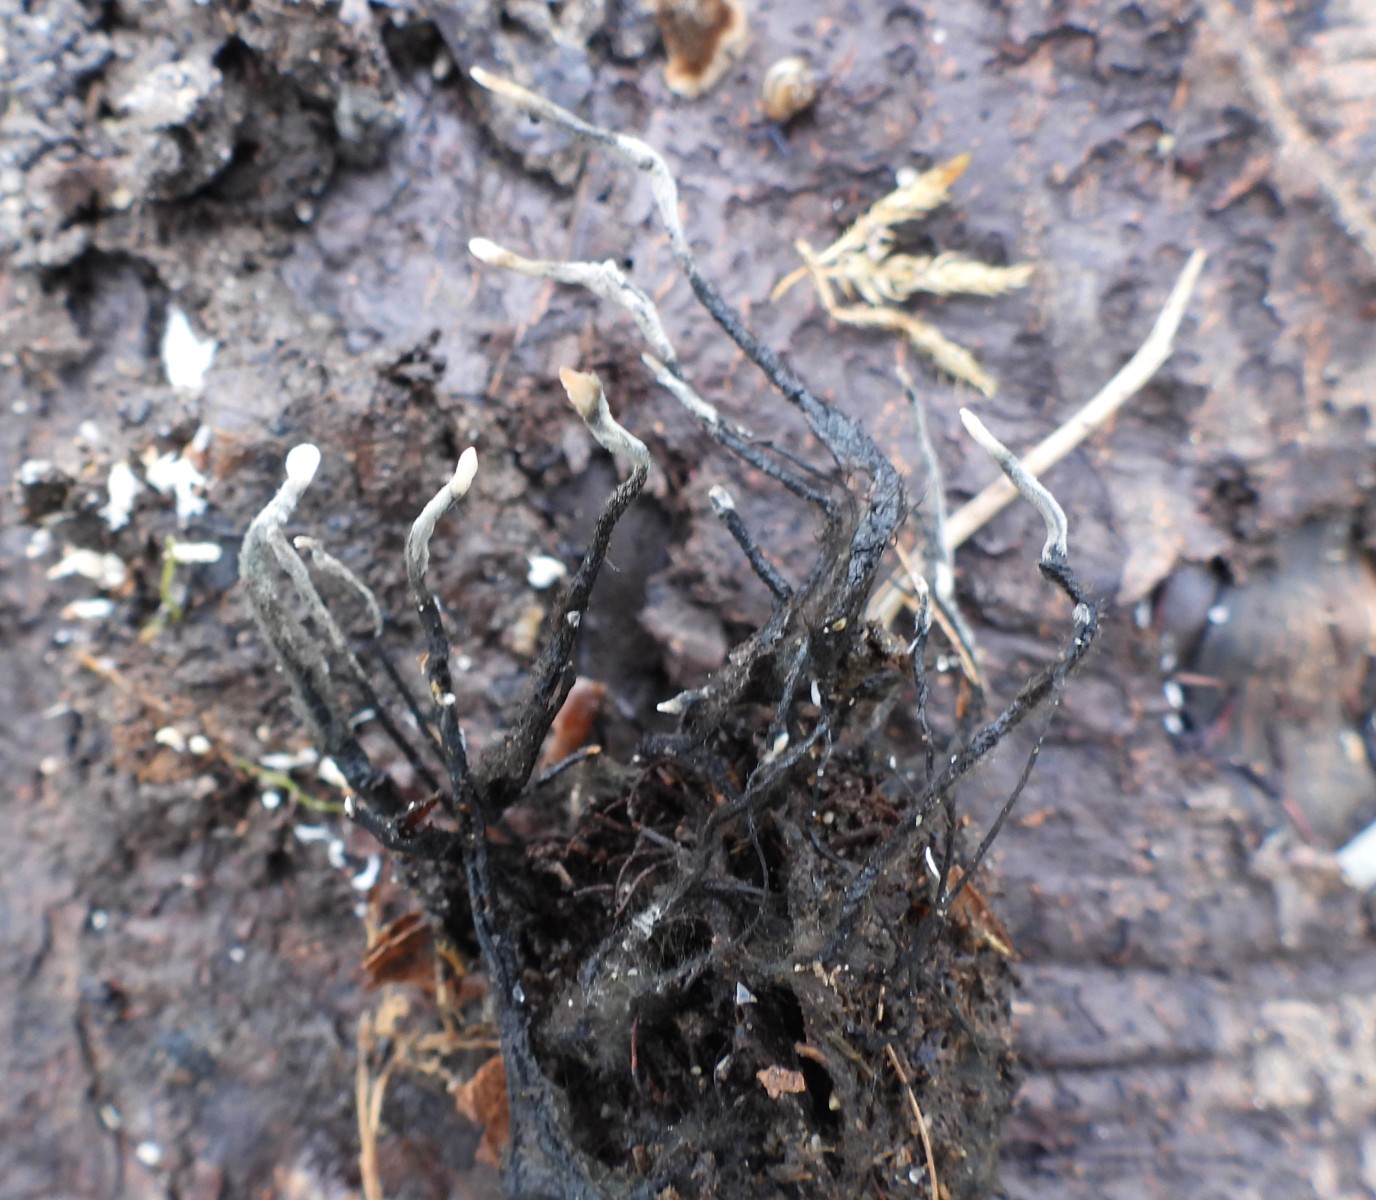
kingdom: Fungi
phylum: Ascomycota
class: Sordariomycetes
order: Xylariales
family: Xylariaceae
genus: Xylaria
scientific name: Xylaria carpophila
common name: bogskål-stødsvamp
